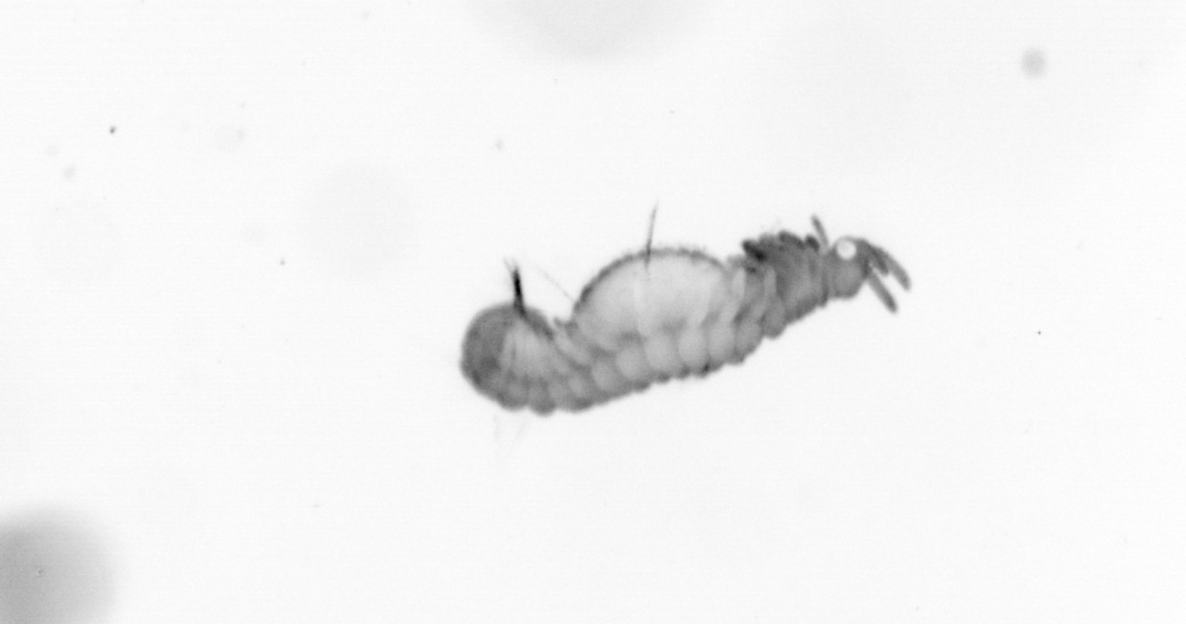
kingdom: Animalia
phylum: Annelida
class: Polychaeta
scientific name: Polychaeta
